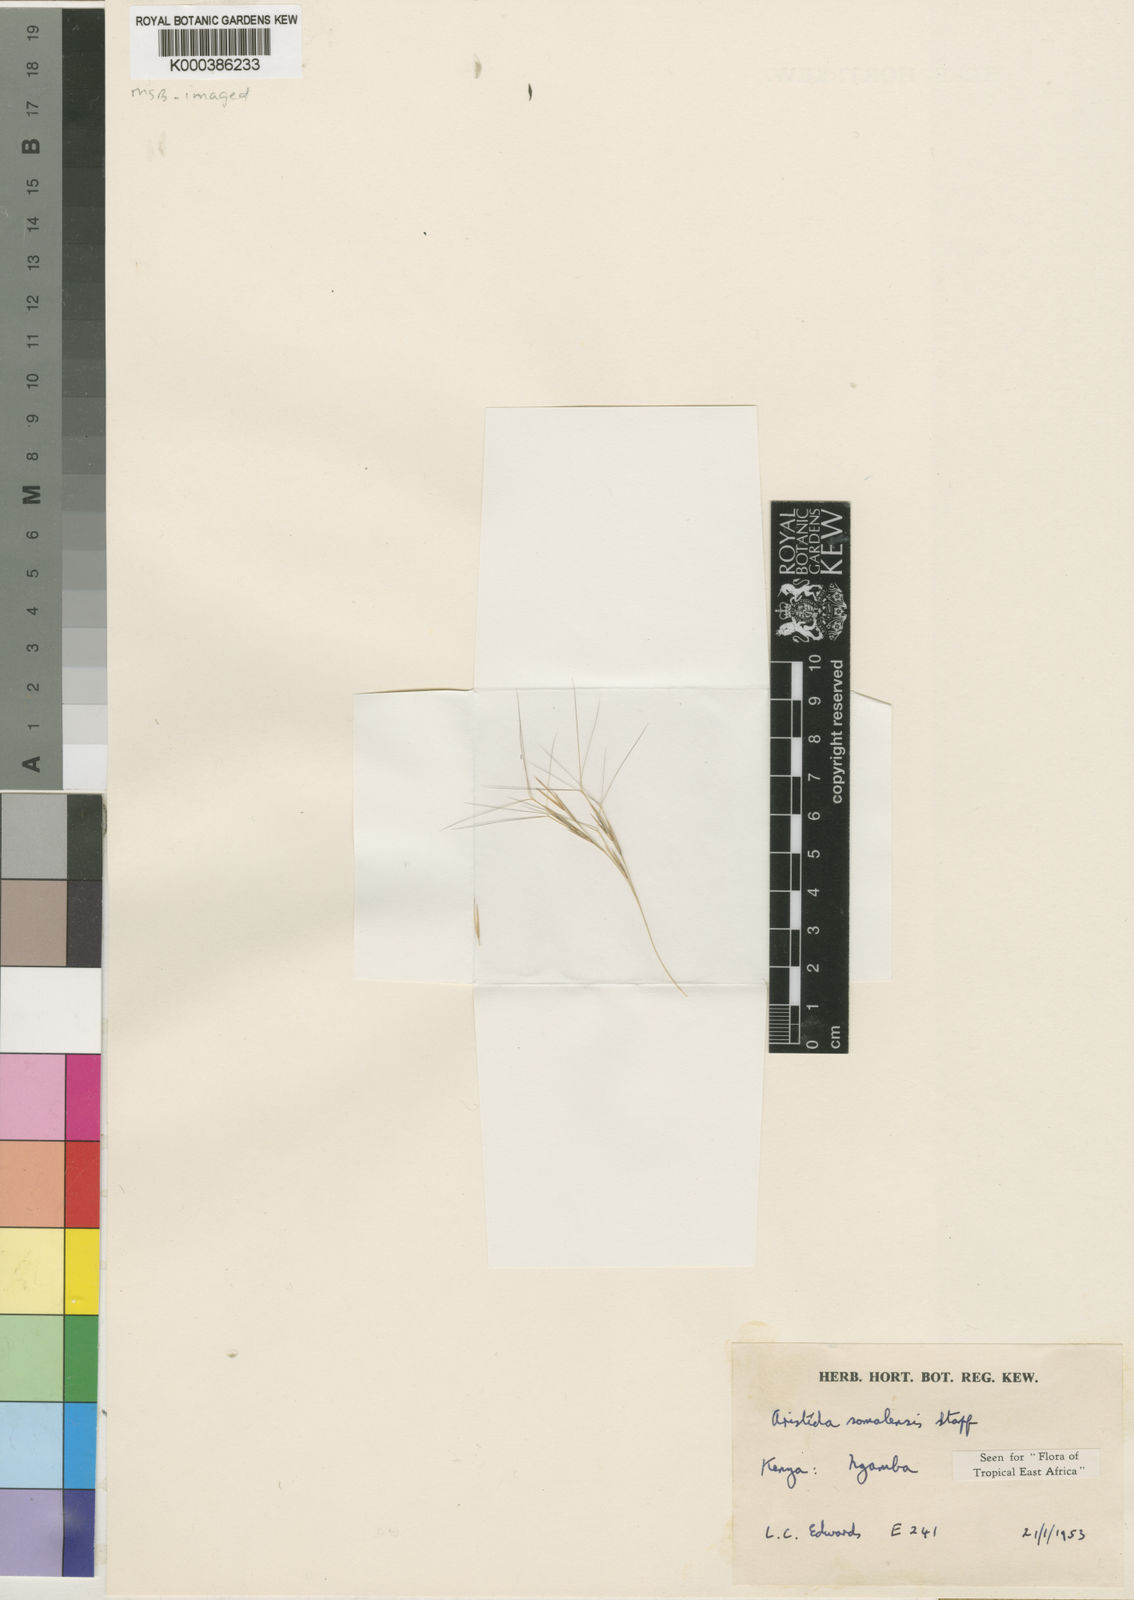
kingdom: Plantae
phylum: Tracheophyta
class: Liliopsida
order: Poales
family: Poaceae
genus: Aristida
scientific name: Aristida somalensis
